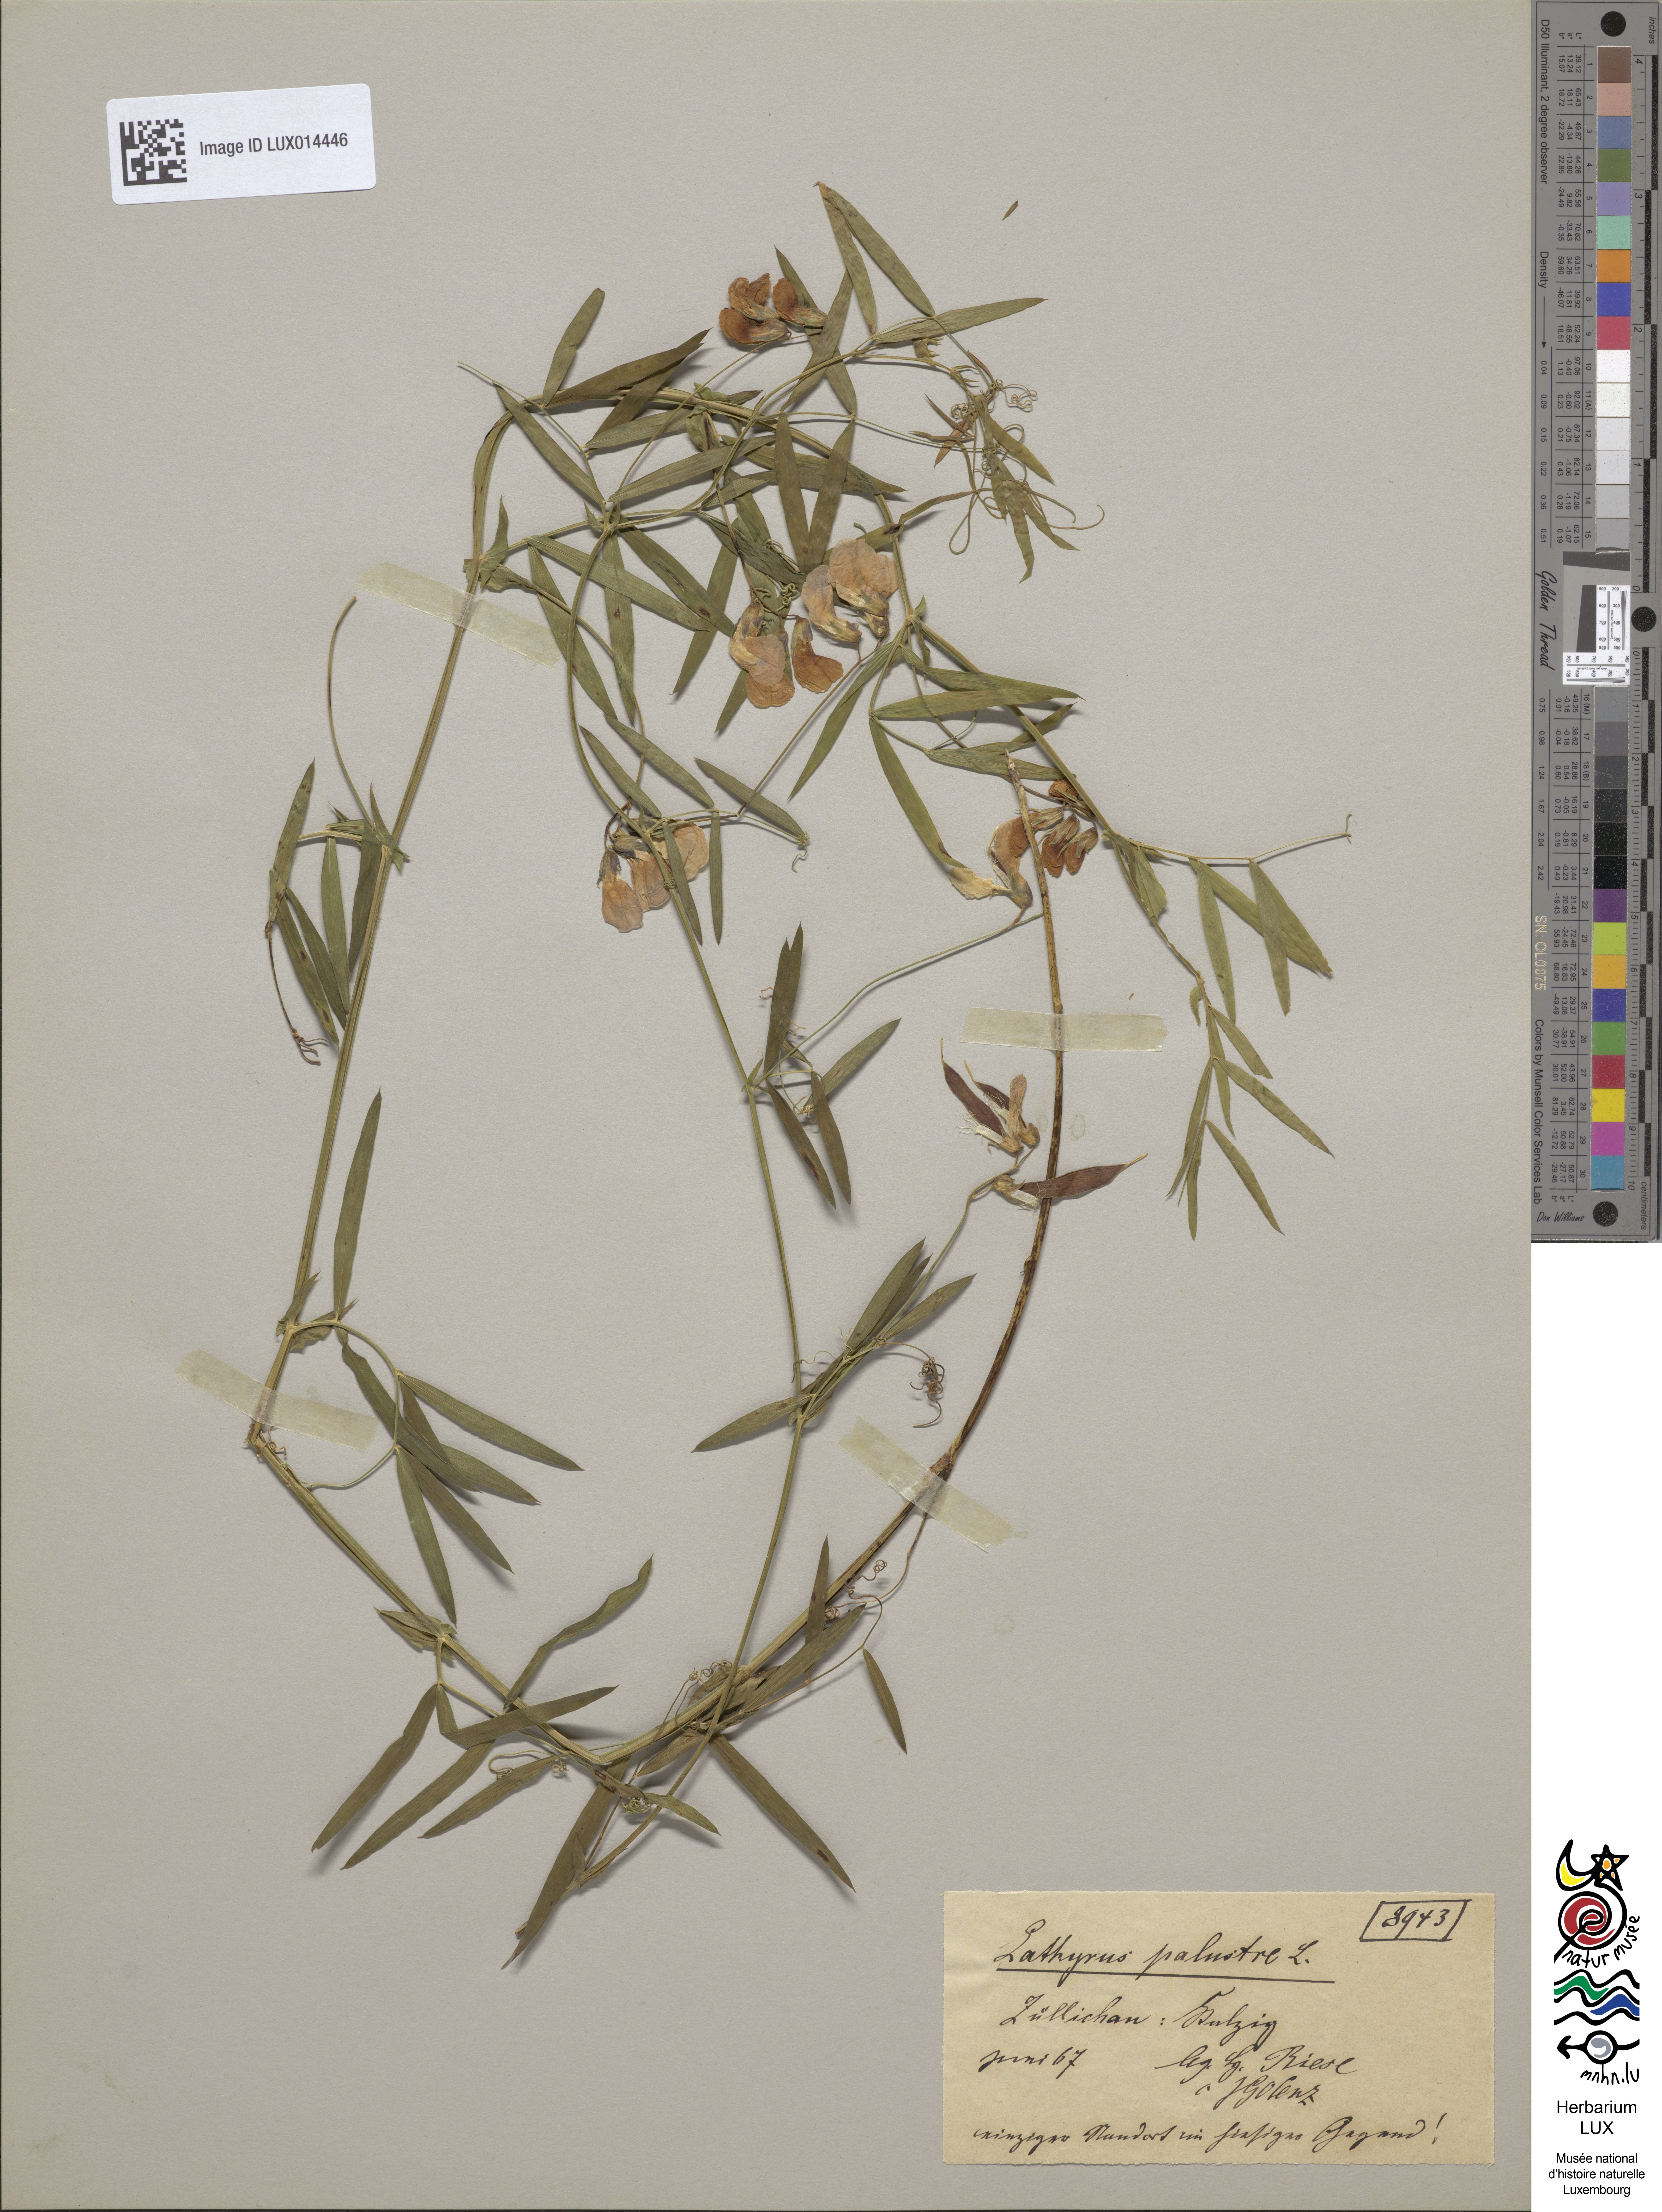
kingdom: Plantae
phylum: Tracheophyta
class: Magnoliopsida
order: Fabales
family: Fabaceae
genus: Lathyrus
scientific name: Lathyrus palustris
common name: Marsh pea
